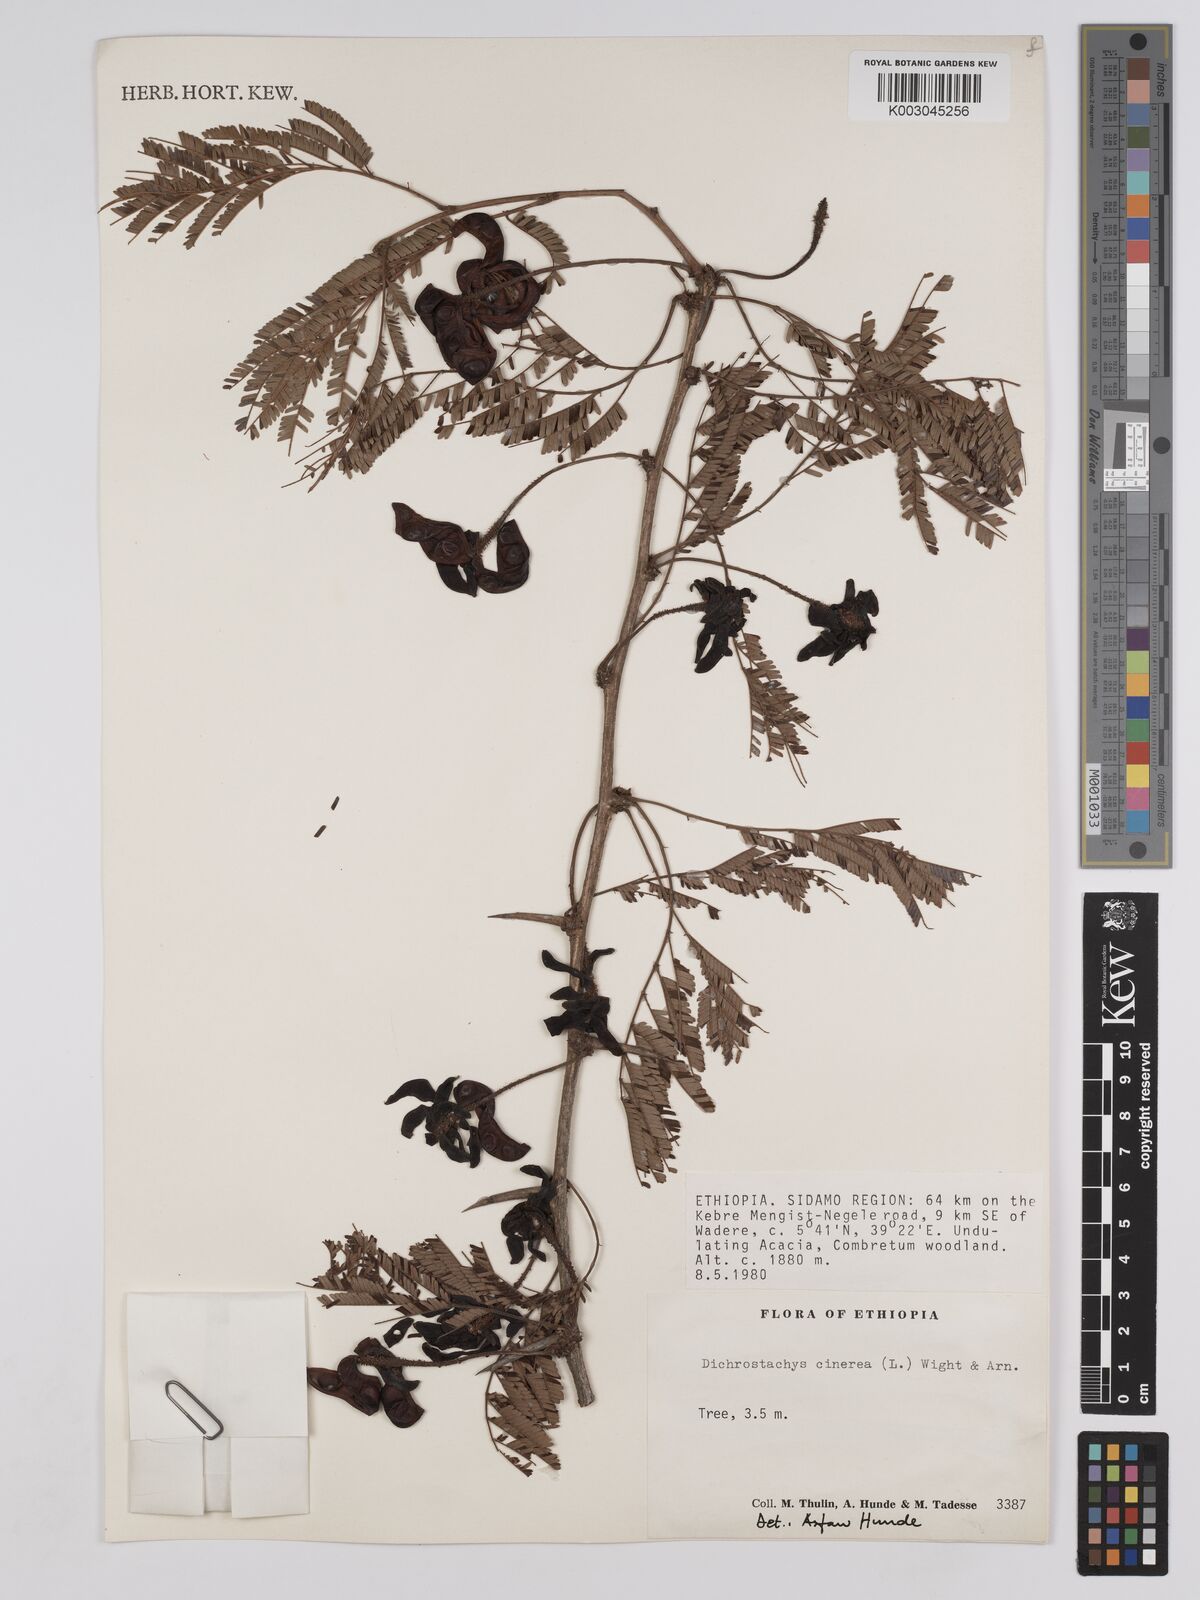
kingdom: Plantae
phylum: Tracheophyta
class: Magnoliopsida
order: Fabales
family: Fabaceae
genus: Dichrostachys
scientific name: Dichrostachys cinerea
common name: Sicklebush
